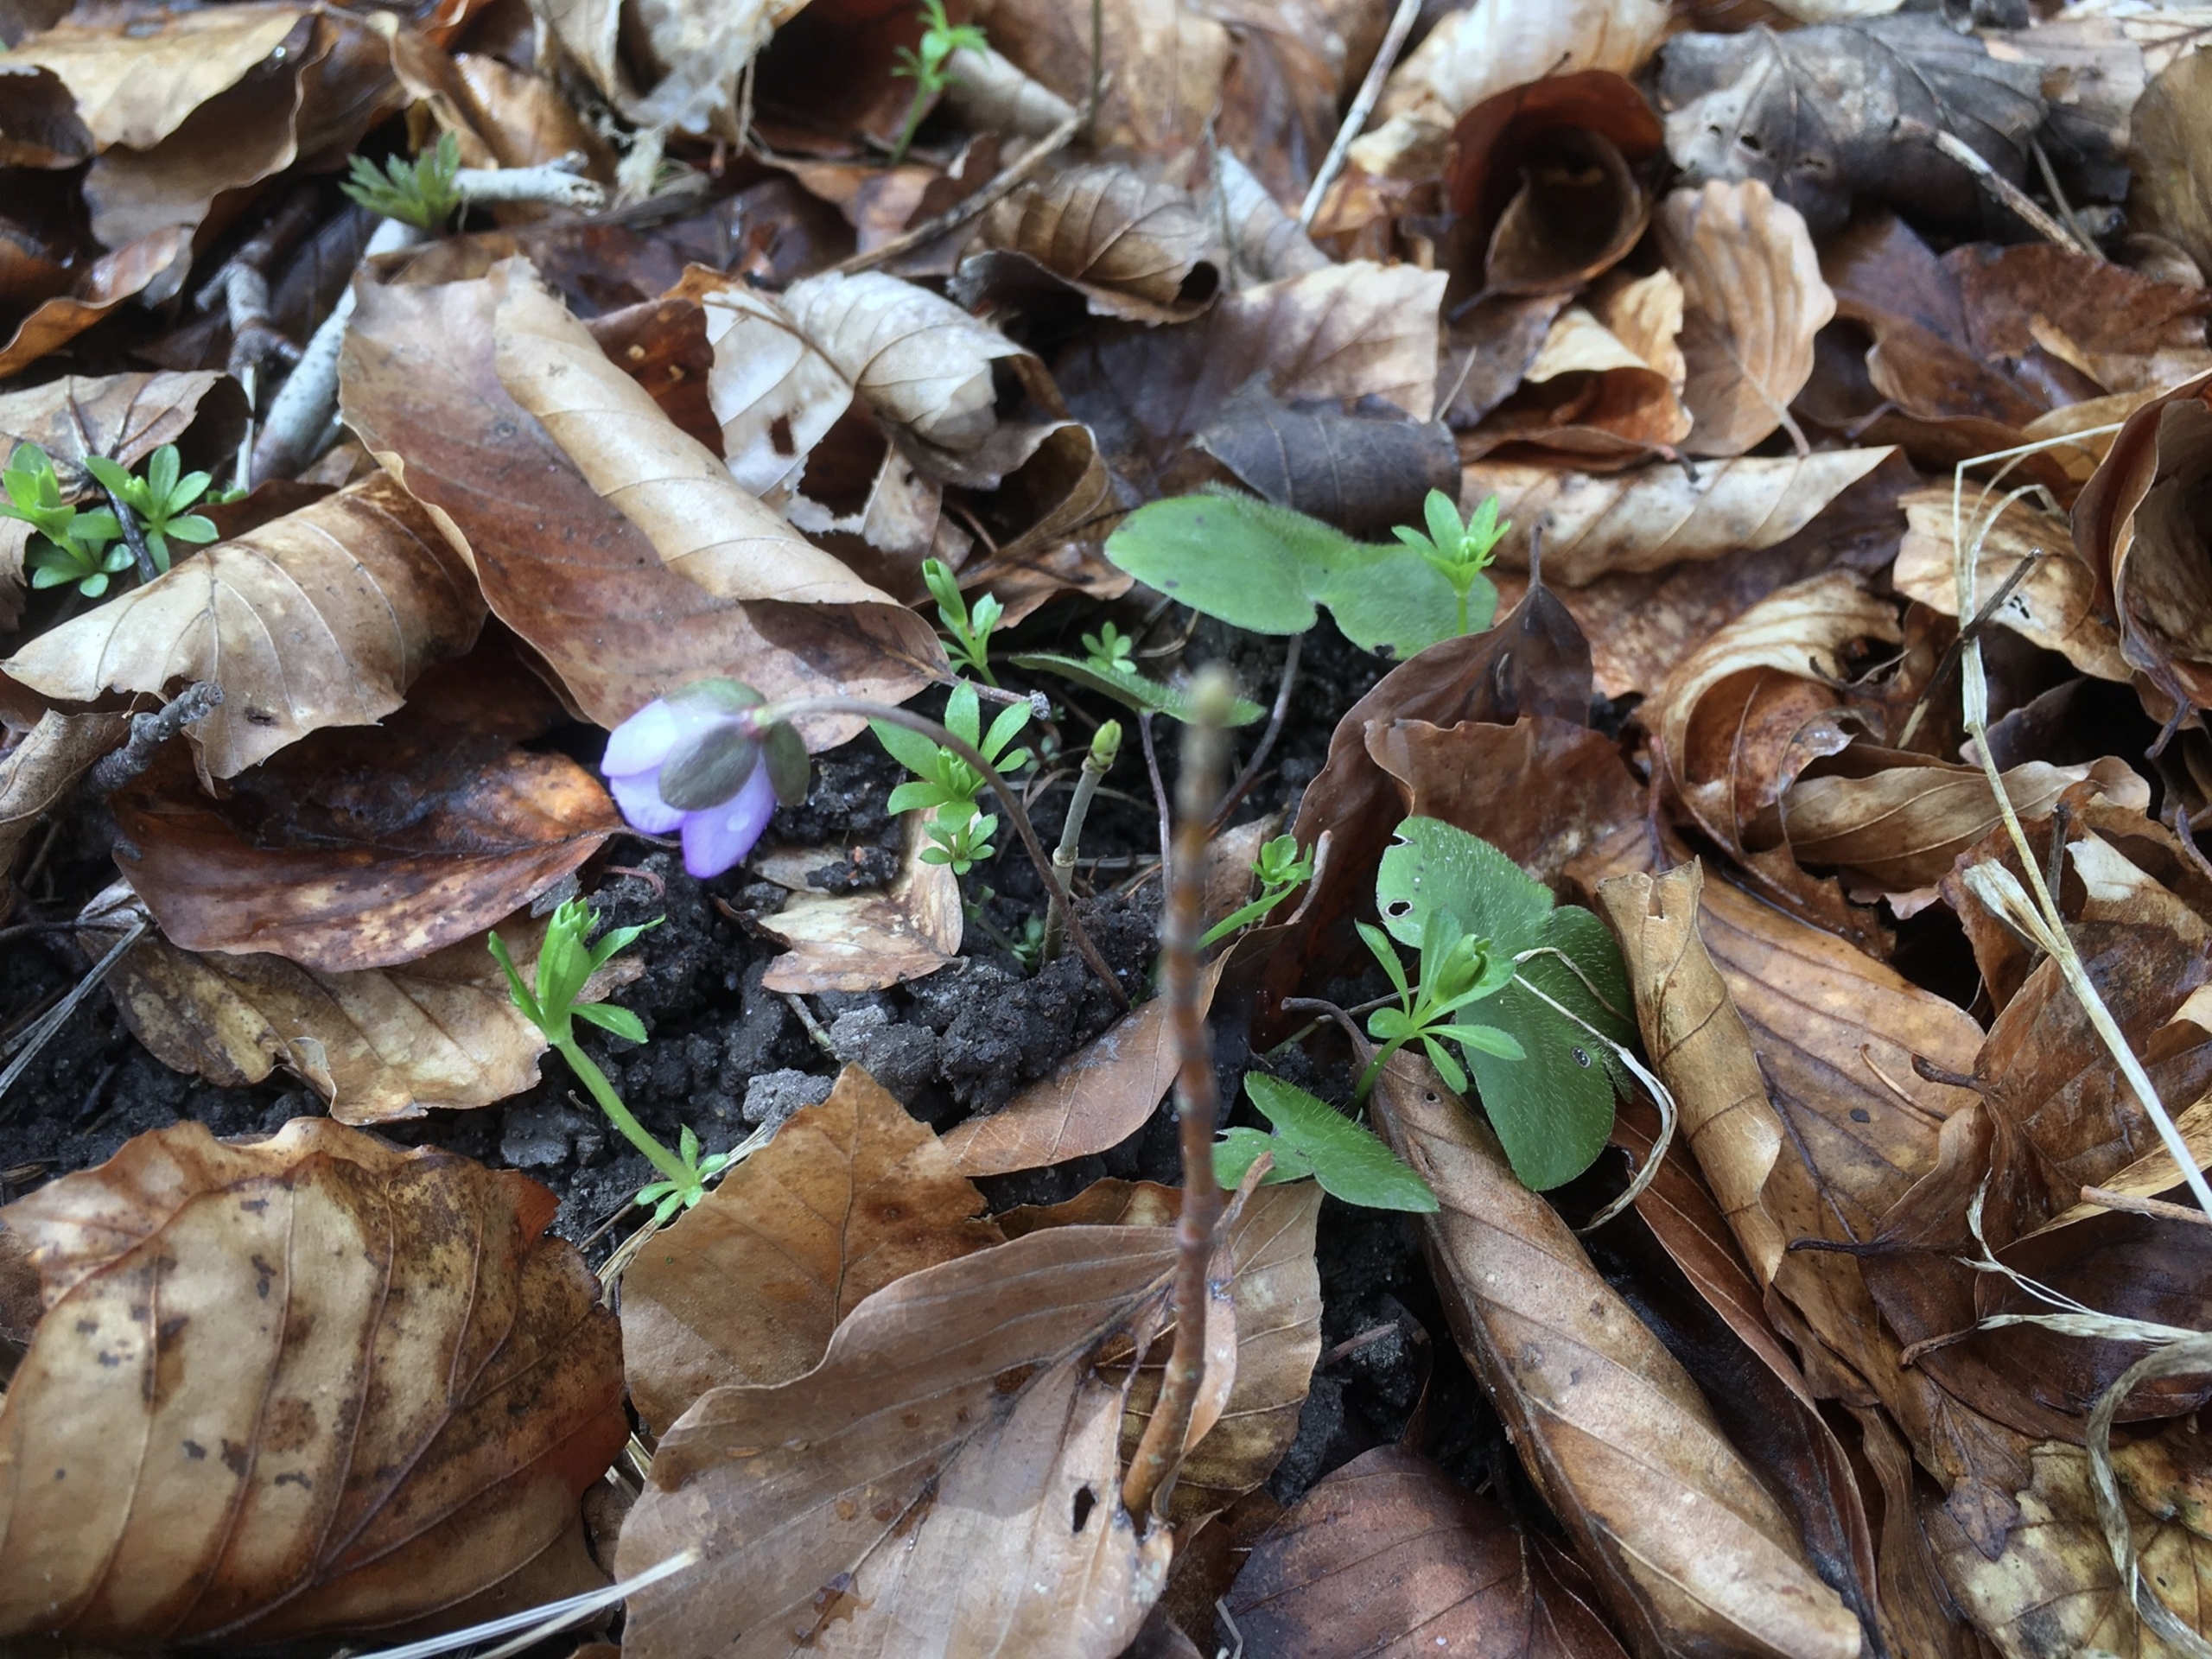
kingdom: Plantae
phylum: Tracheophyta
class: Magnoliopsida
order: Ranunculales
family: Ranunculaceae
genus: Hepatica
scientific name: Hepatica nobilis
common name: Blå anemone
